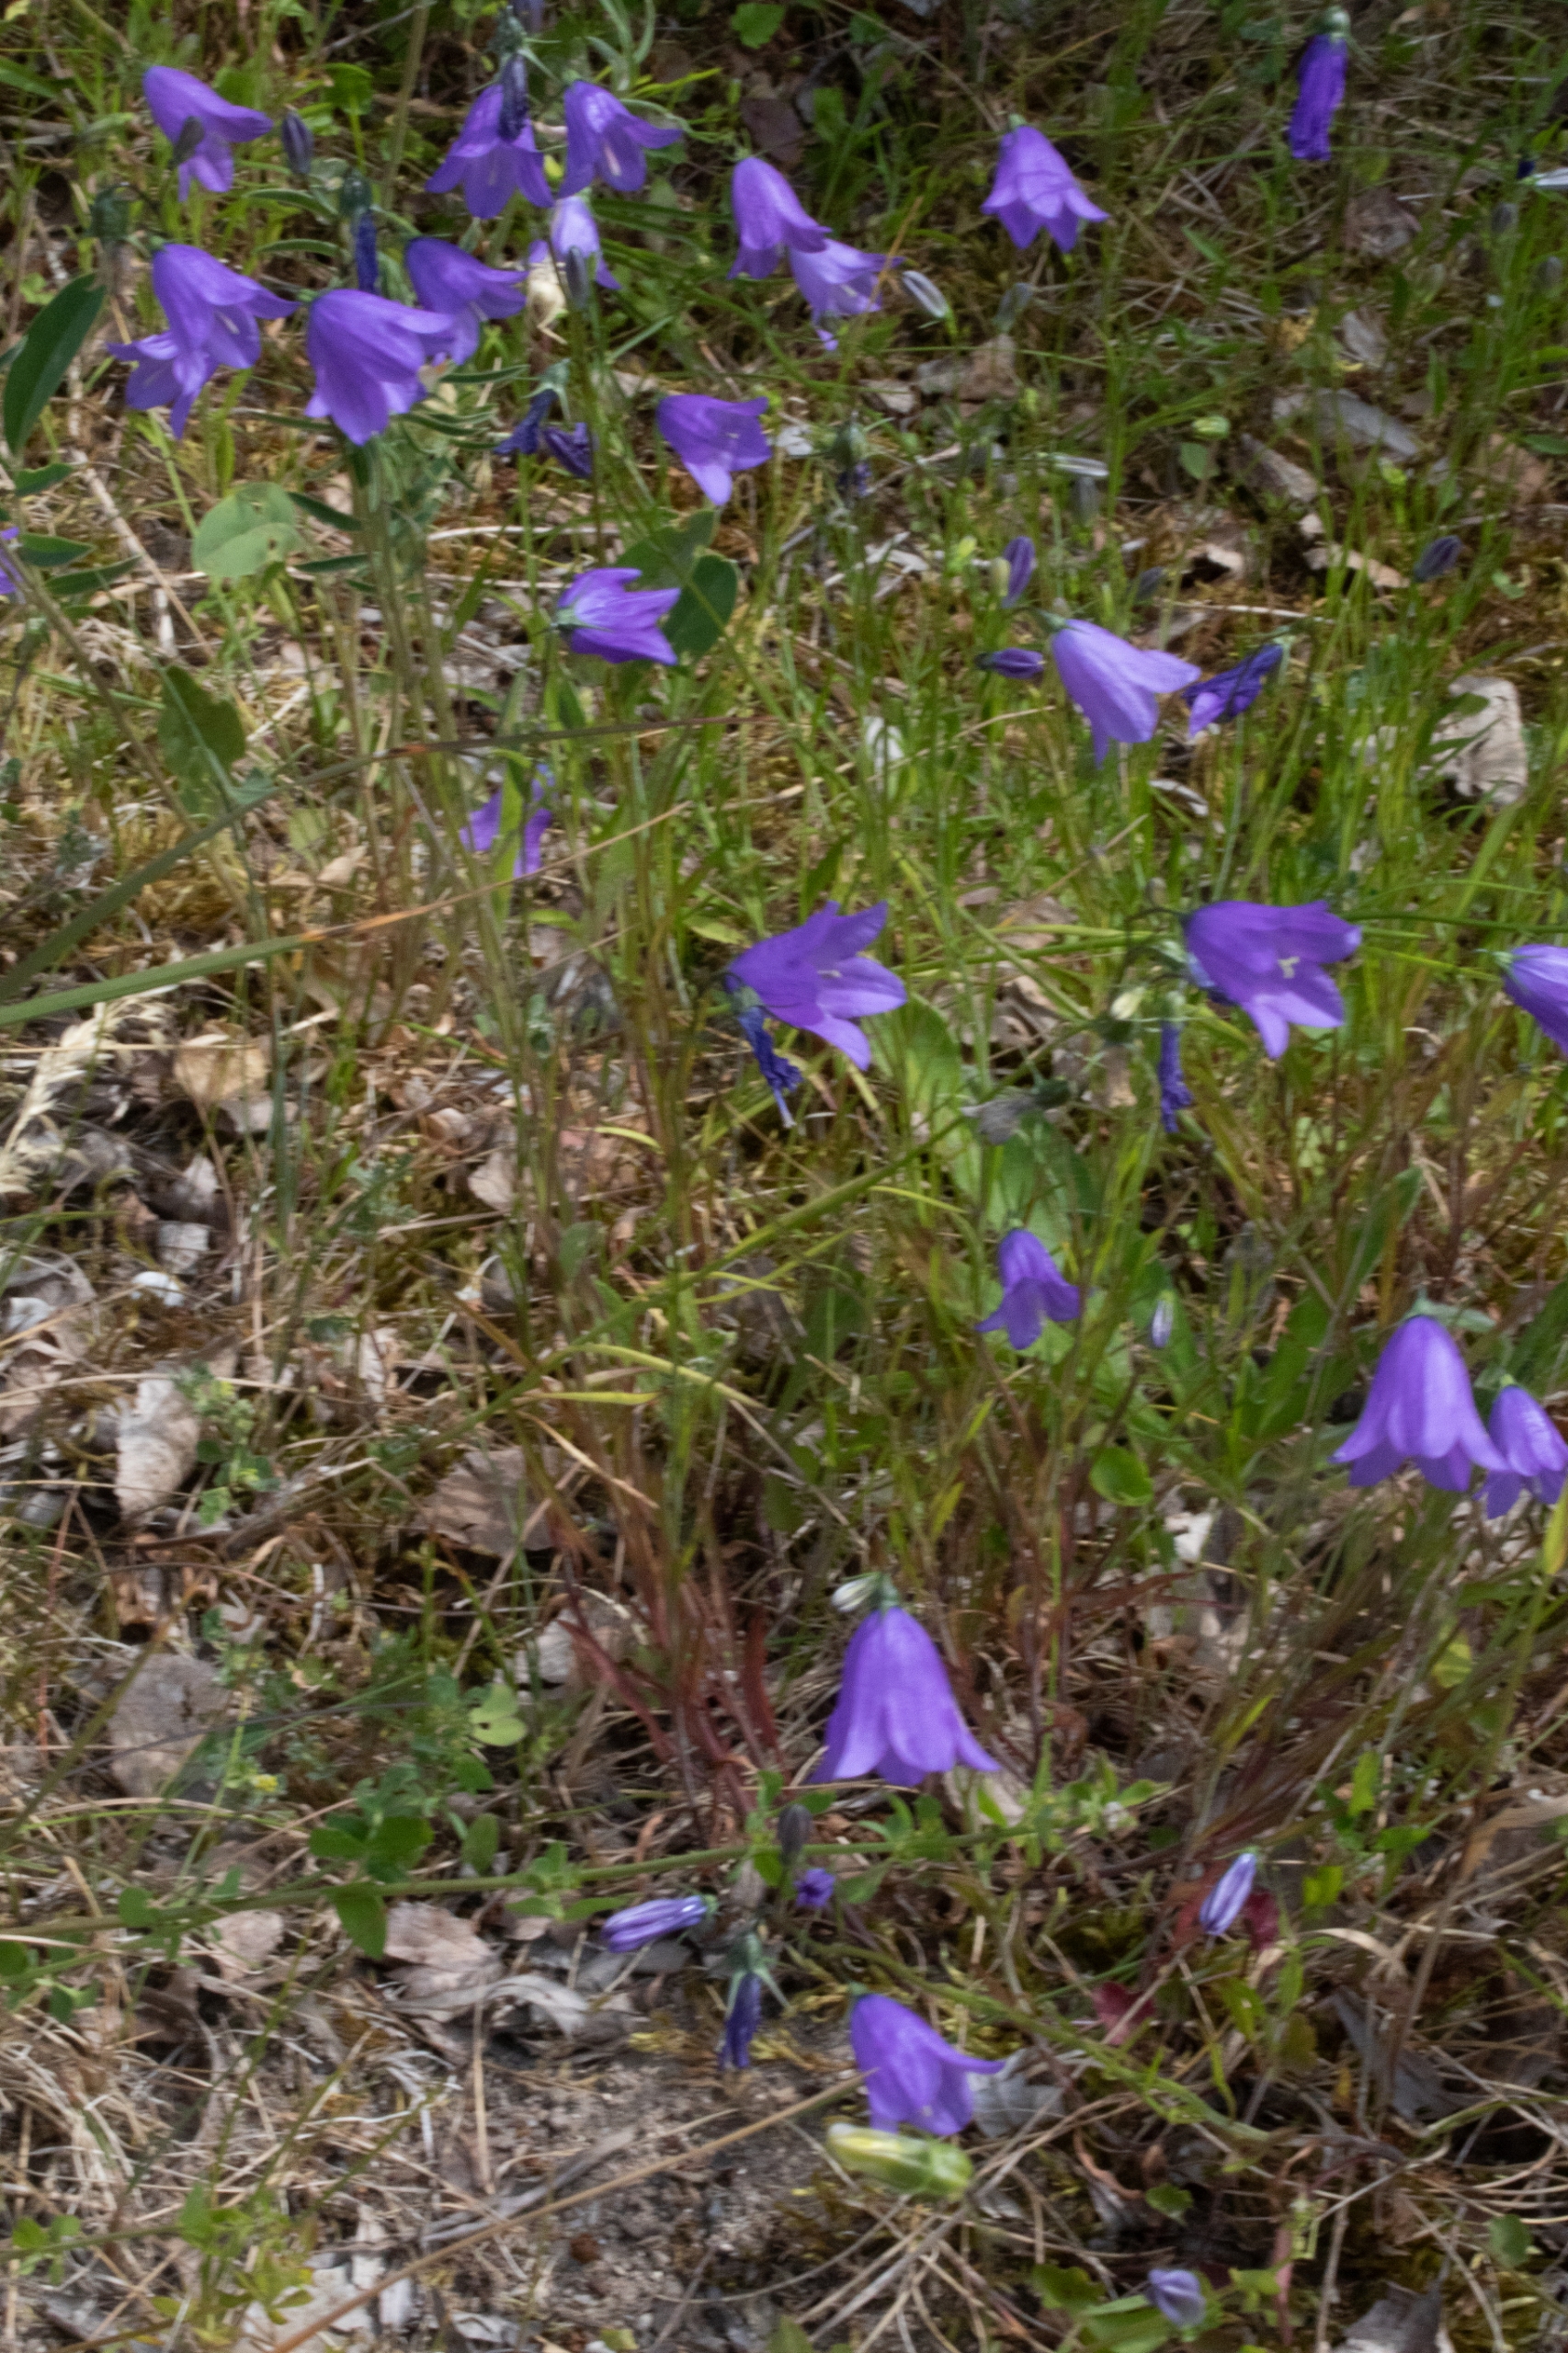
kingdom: Plantae
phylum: Tracheophyta
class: Magnoliopsida
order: Asterales
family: Campanulaceae
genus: Campanula
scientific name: Campanula rotundifolia
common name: Liden klokke
